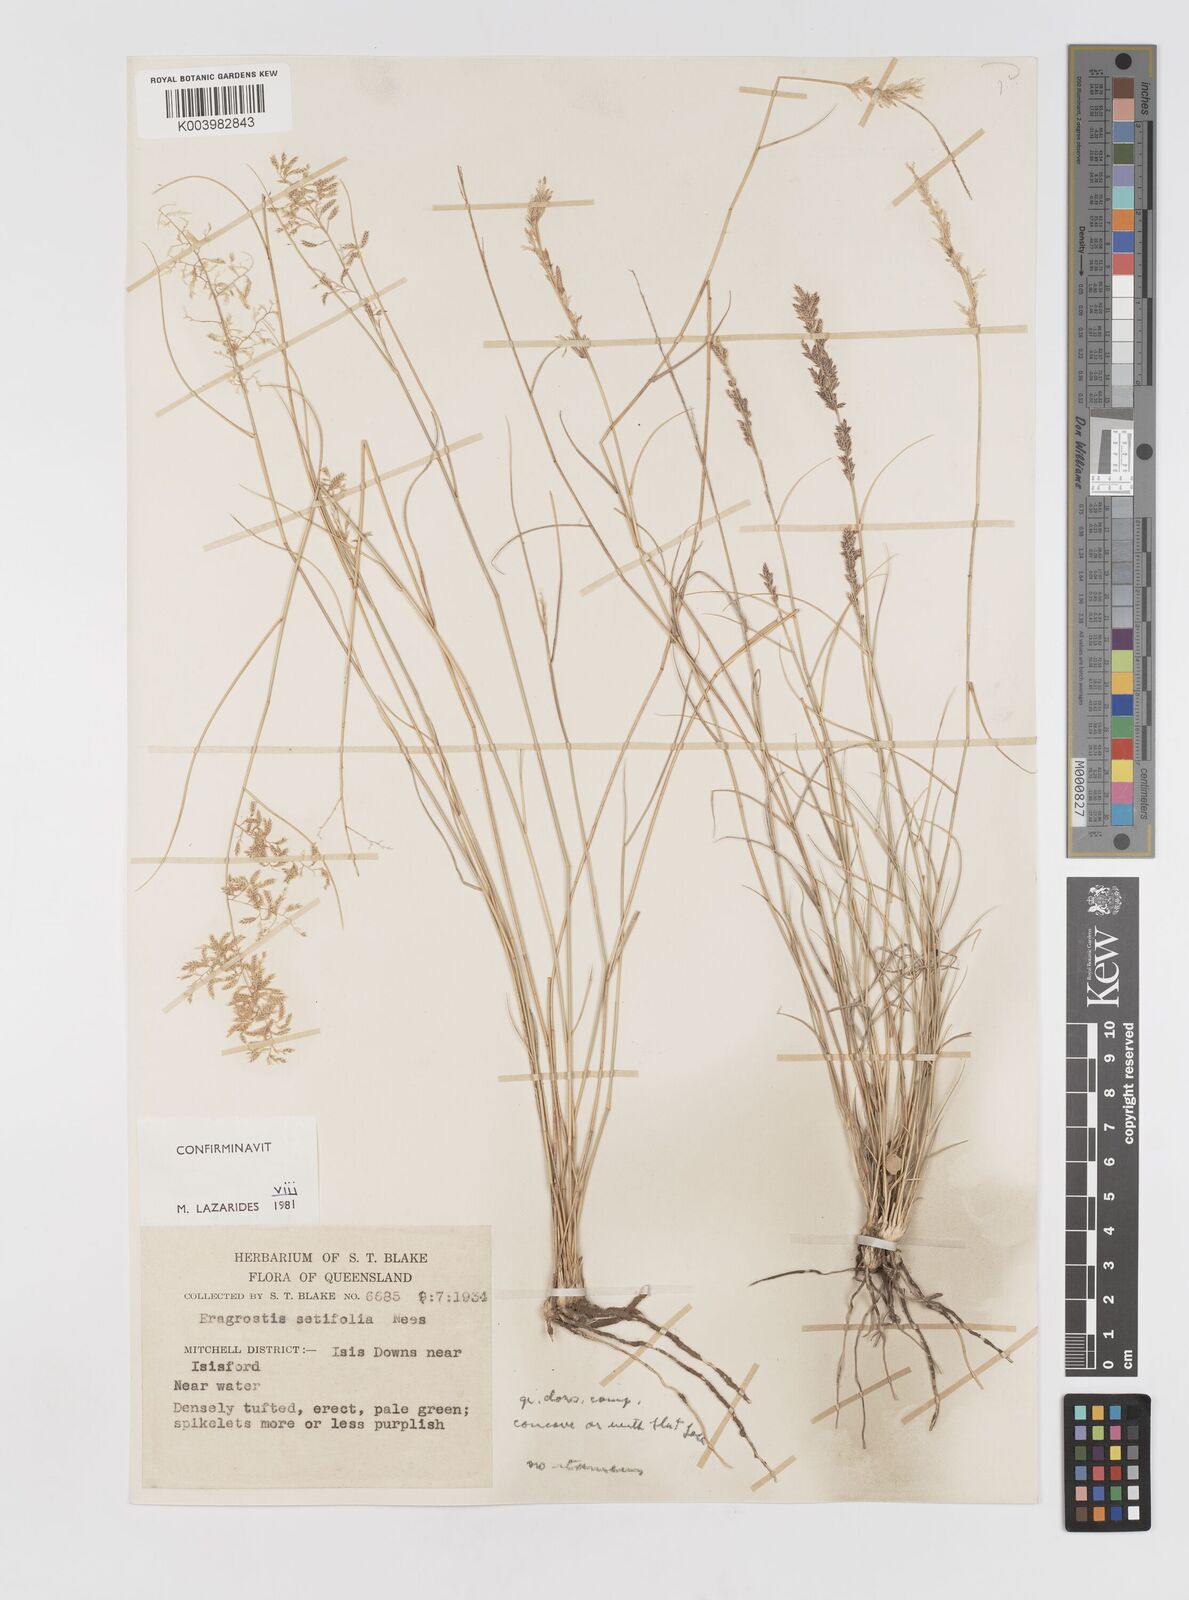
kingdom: Plantae
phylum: Tracheophyta
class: Liliopsida
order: Poales
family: Poaceae
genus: Eragrostis
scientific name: Eragrostis setifolia
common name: Bristleleaf lovegrass
